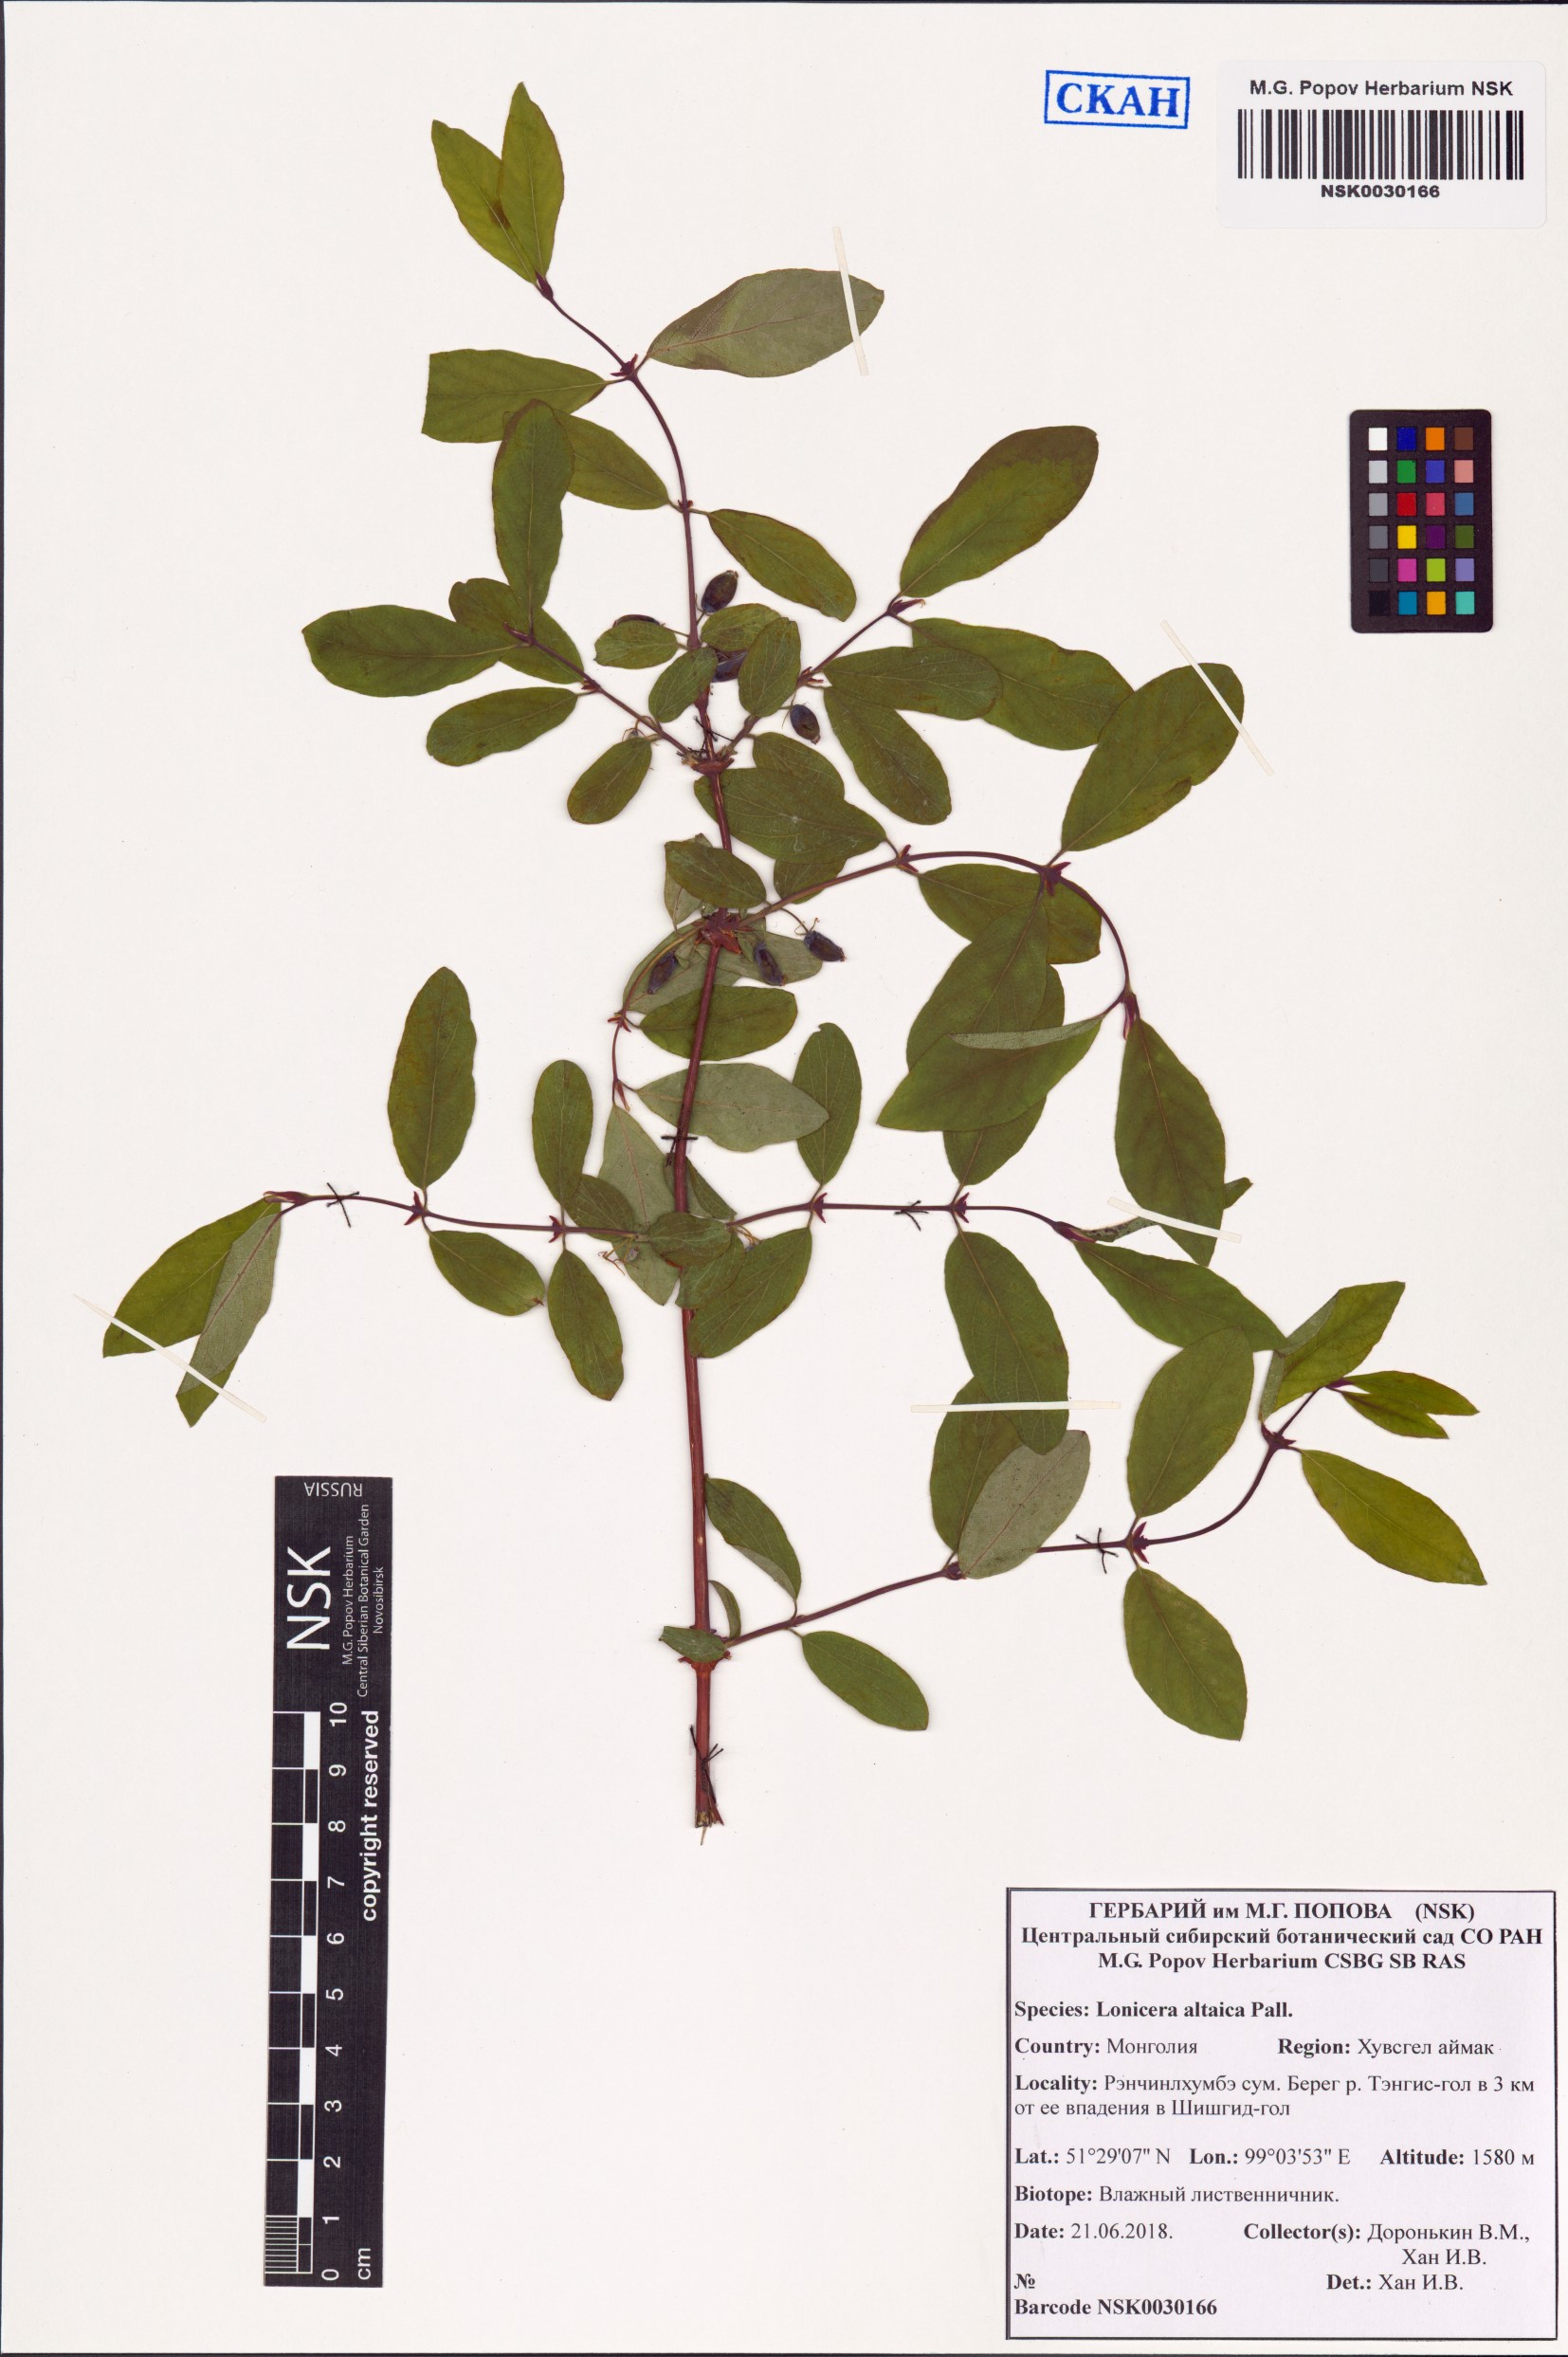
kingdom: Plantae
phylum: Tracheophyta
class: Magnoliopsida
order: Dipsacales
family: Caprifoliaceae
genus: Lonicera
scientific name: Lonicera caerulea
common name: Blue honeysuckle
